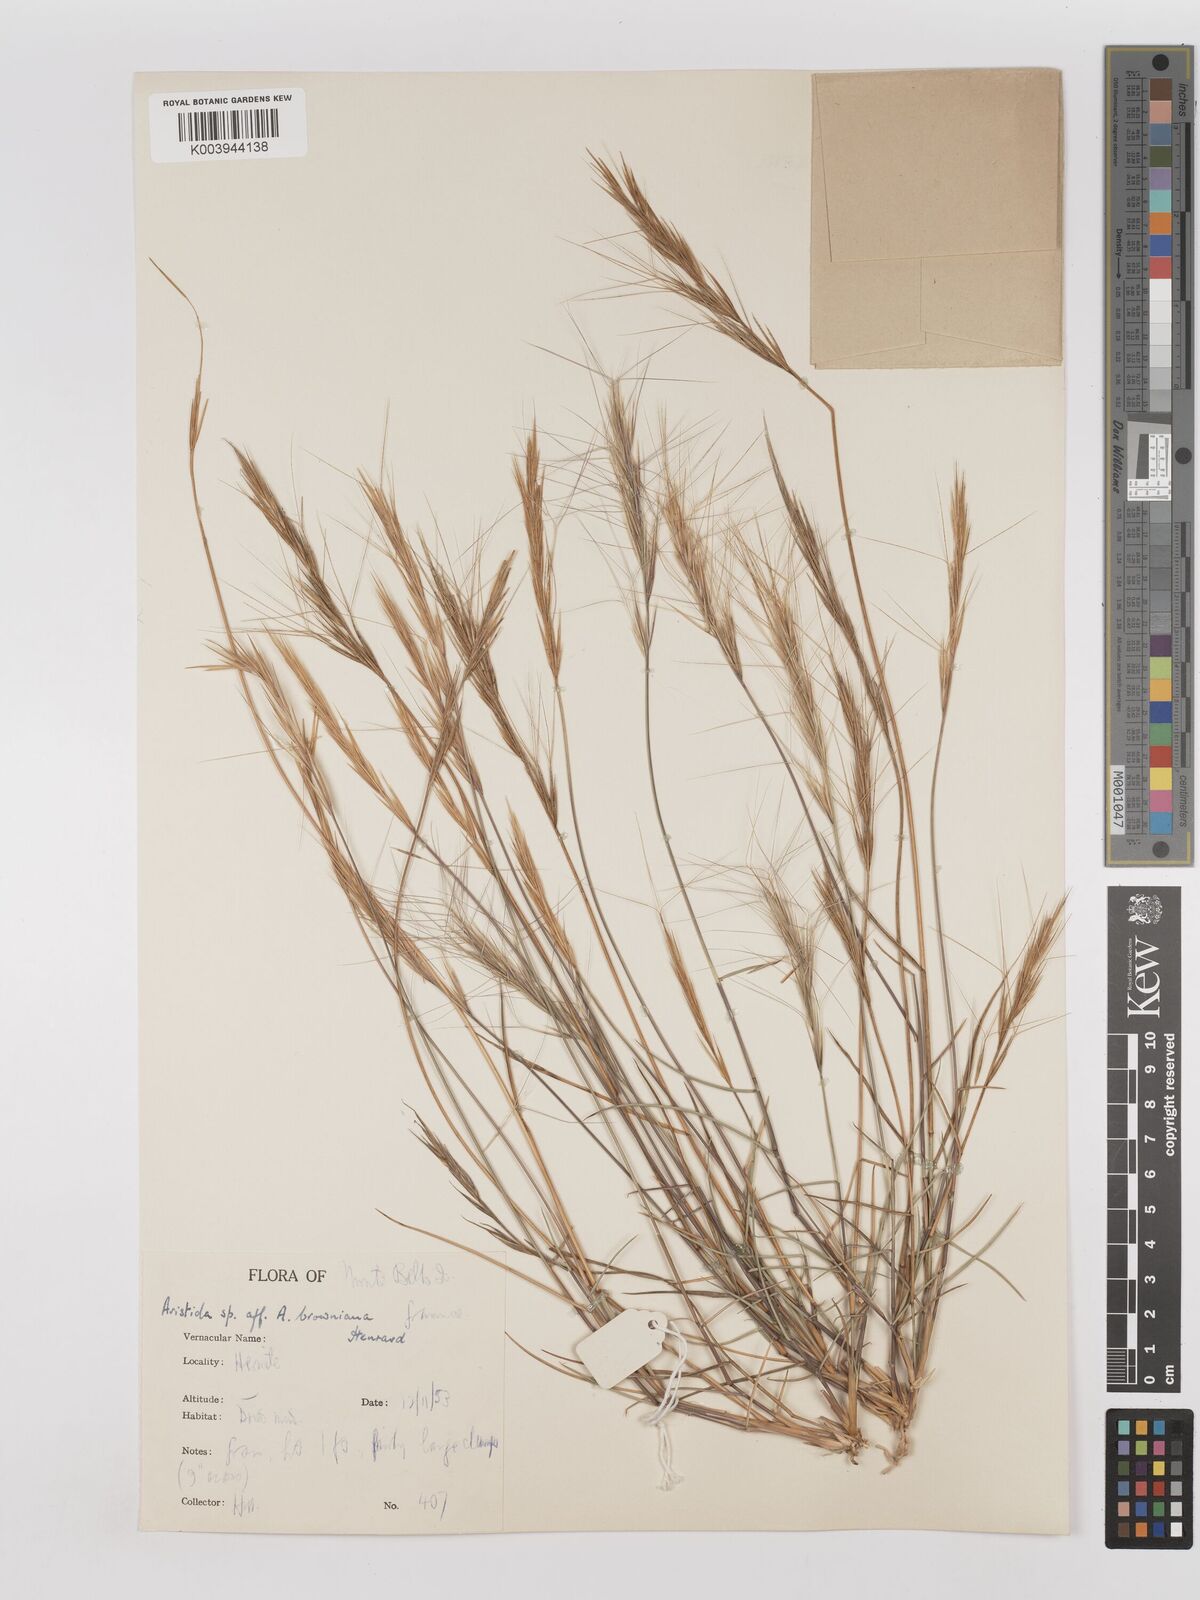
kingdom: Plantae
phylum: Tracheophyta
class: Liliopsida
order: Poales
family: Poaceae
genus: Aristida
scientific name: Aristida holathera
